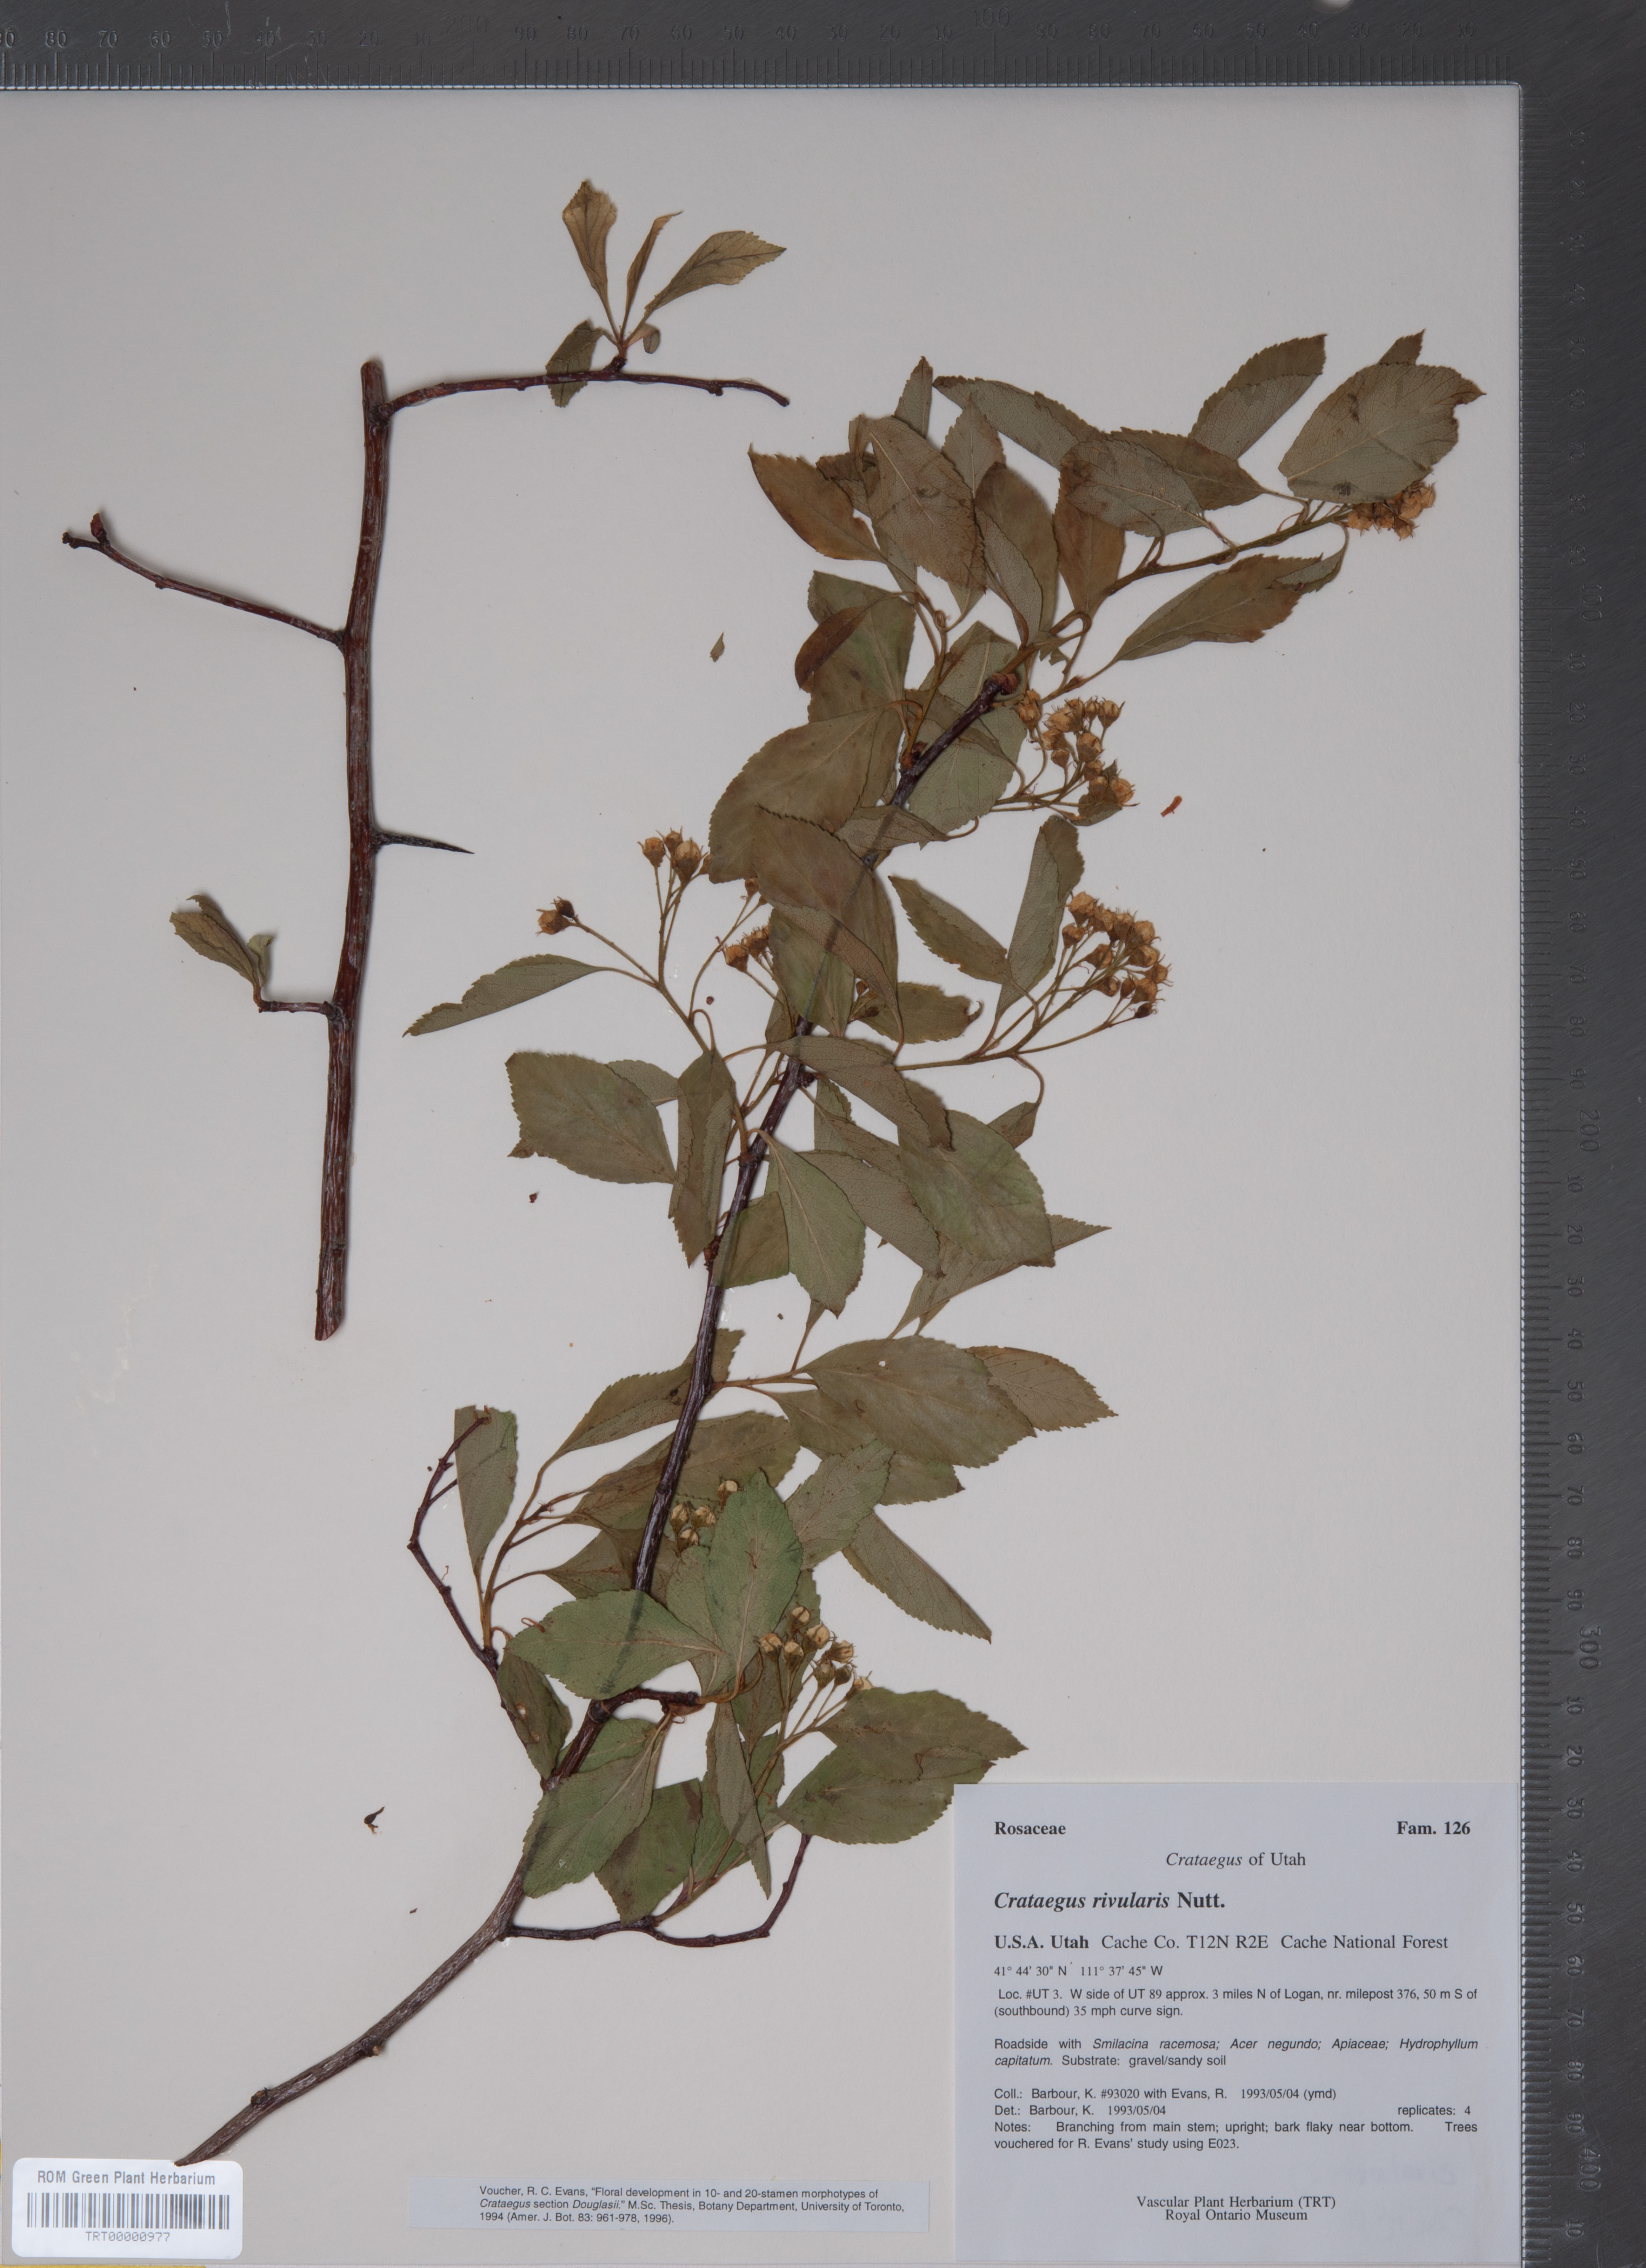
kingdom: Plantae
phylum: Tracheophyta
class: Magnoliopsida
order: Rosales
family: Rosaceae
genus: Crataegus
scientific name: Crataegus rivularis
